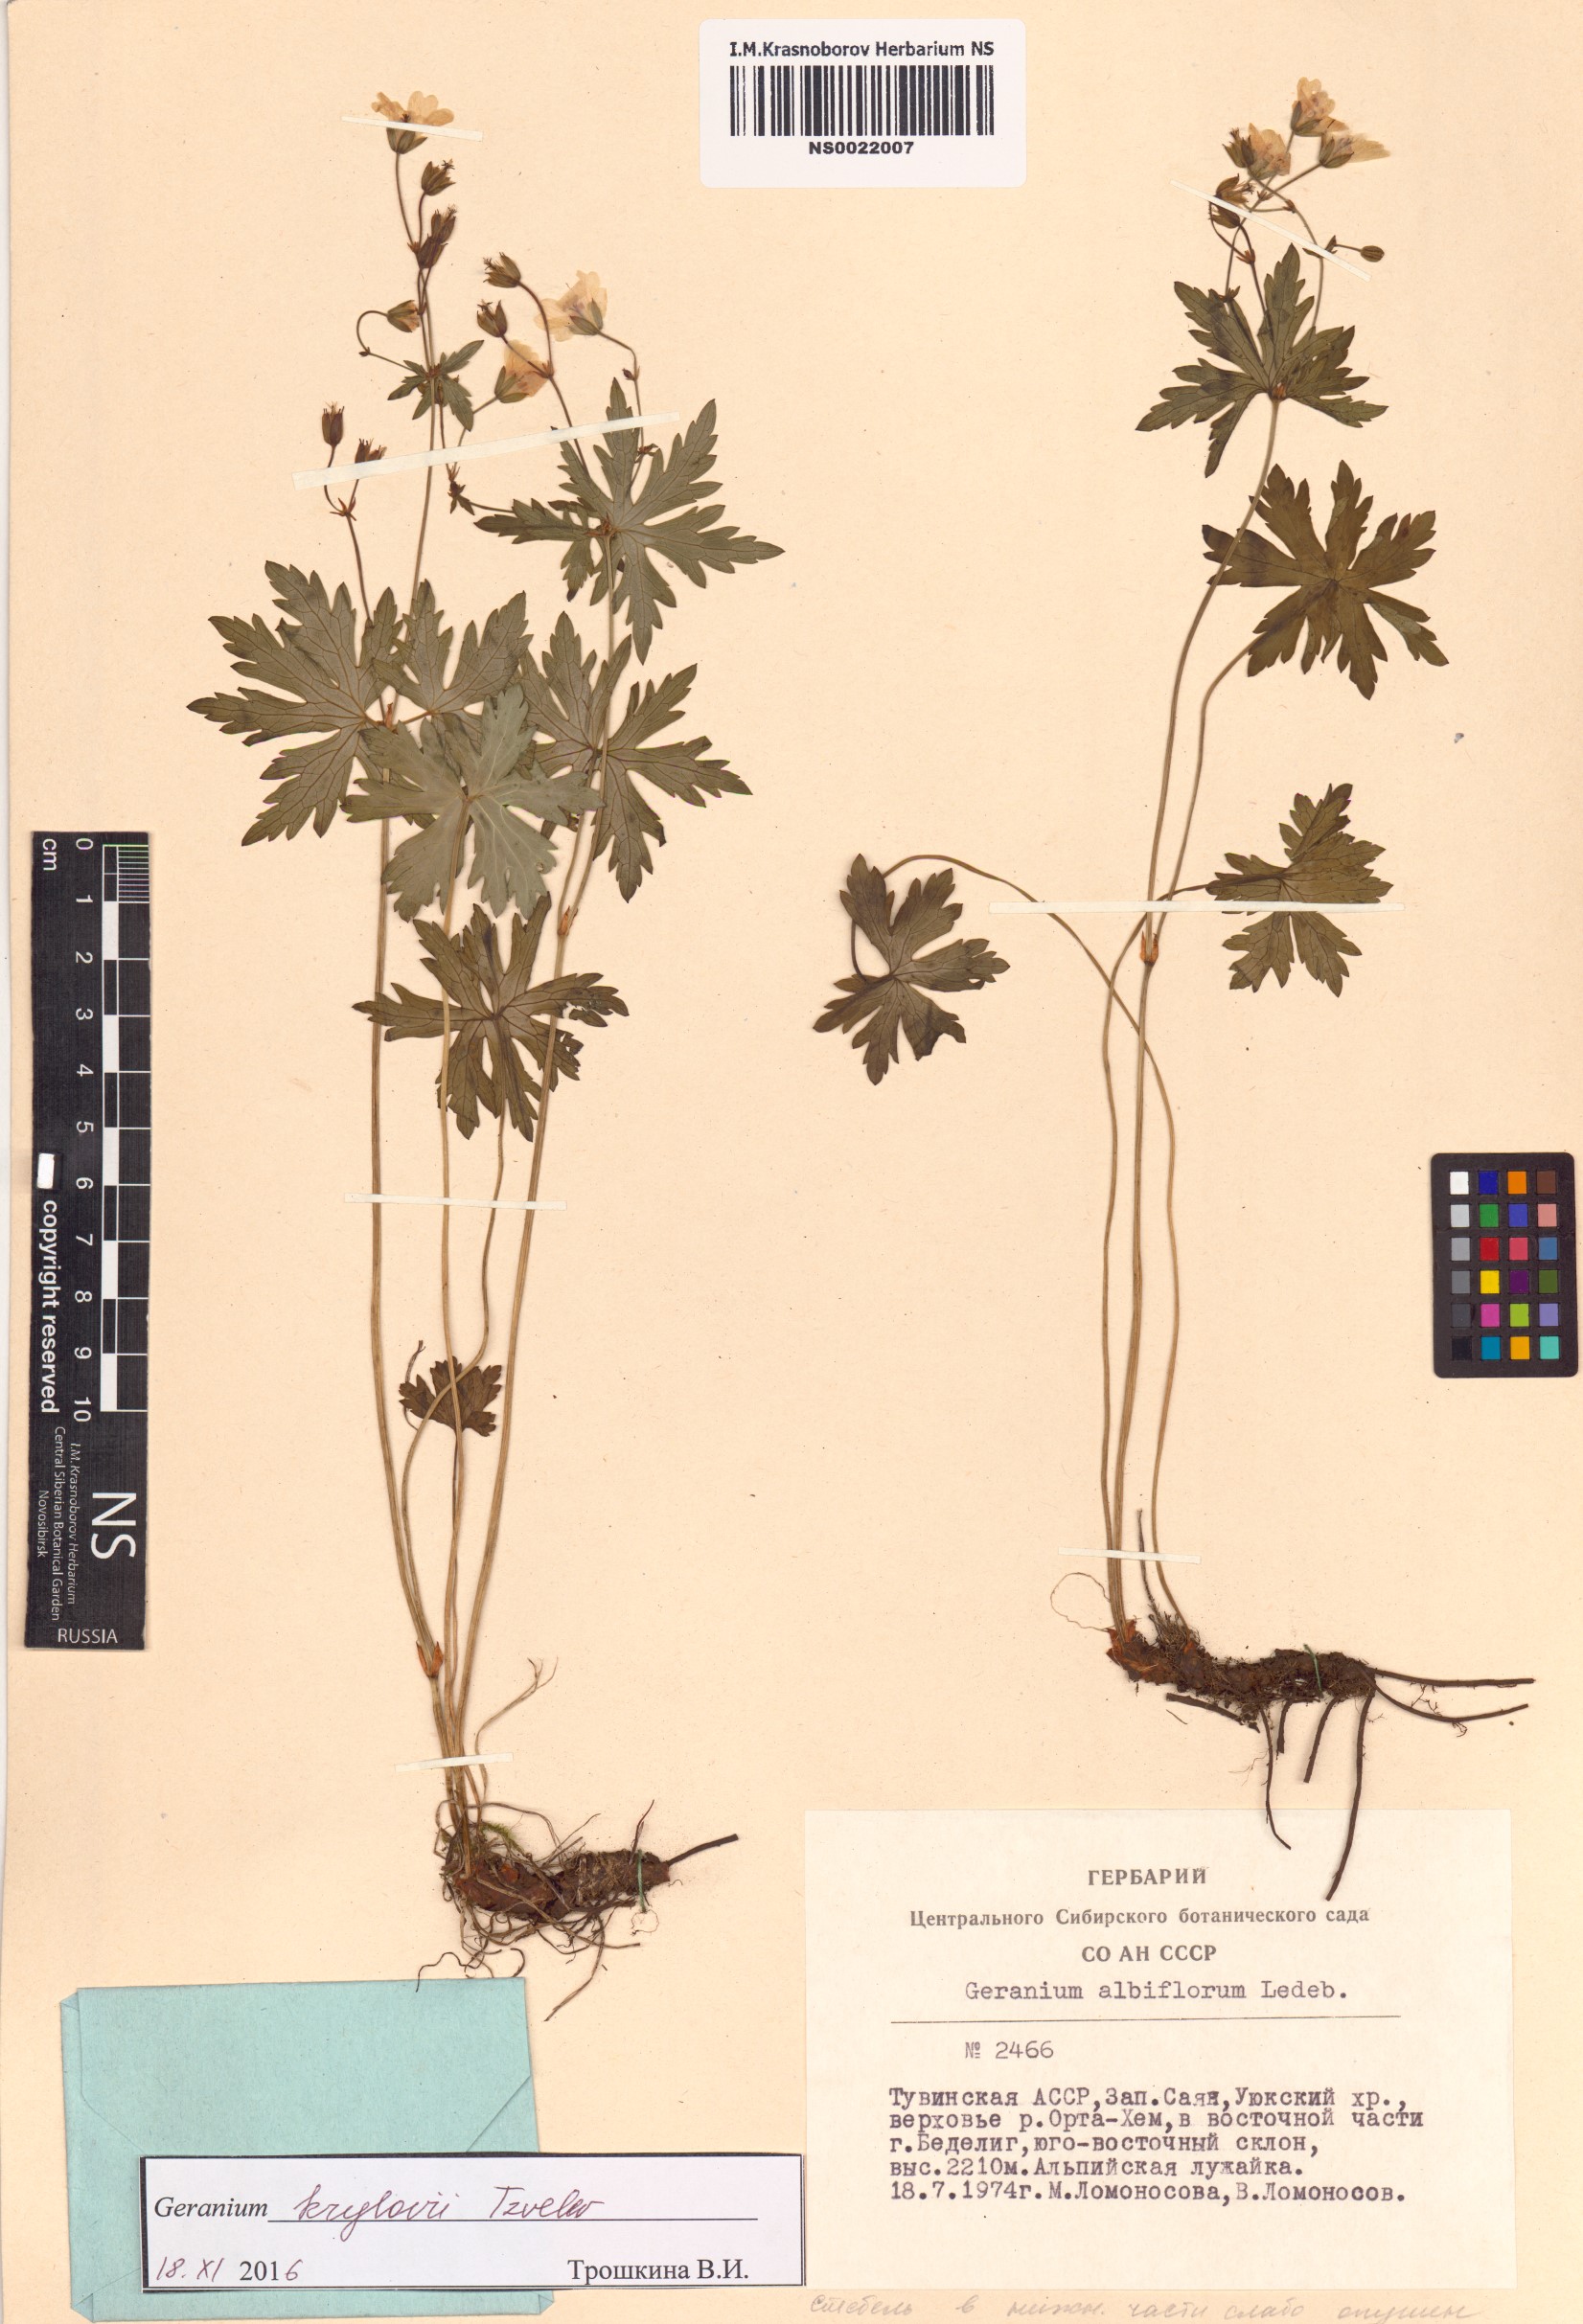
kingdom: Plantae
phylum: Tracheophyta
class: Magnoliopsida
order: Geraniales
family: Geraniaceae
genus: Geranium
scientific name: Geranium sylvaticum
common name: Wood crane's-bill
